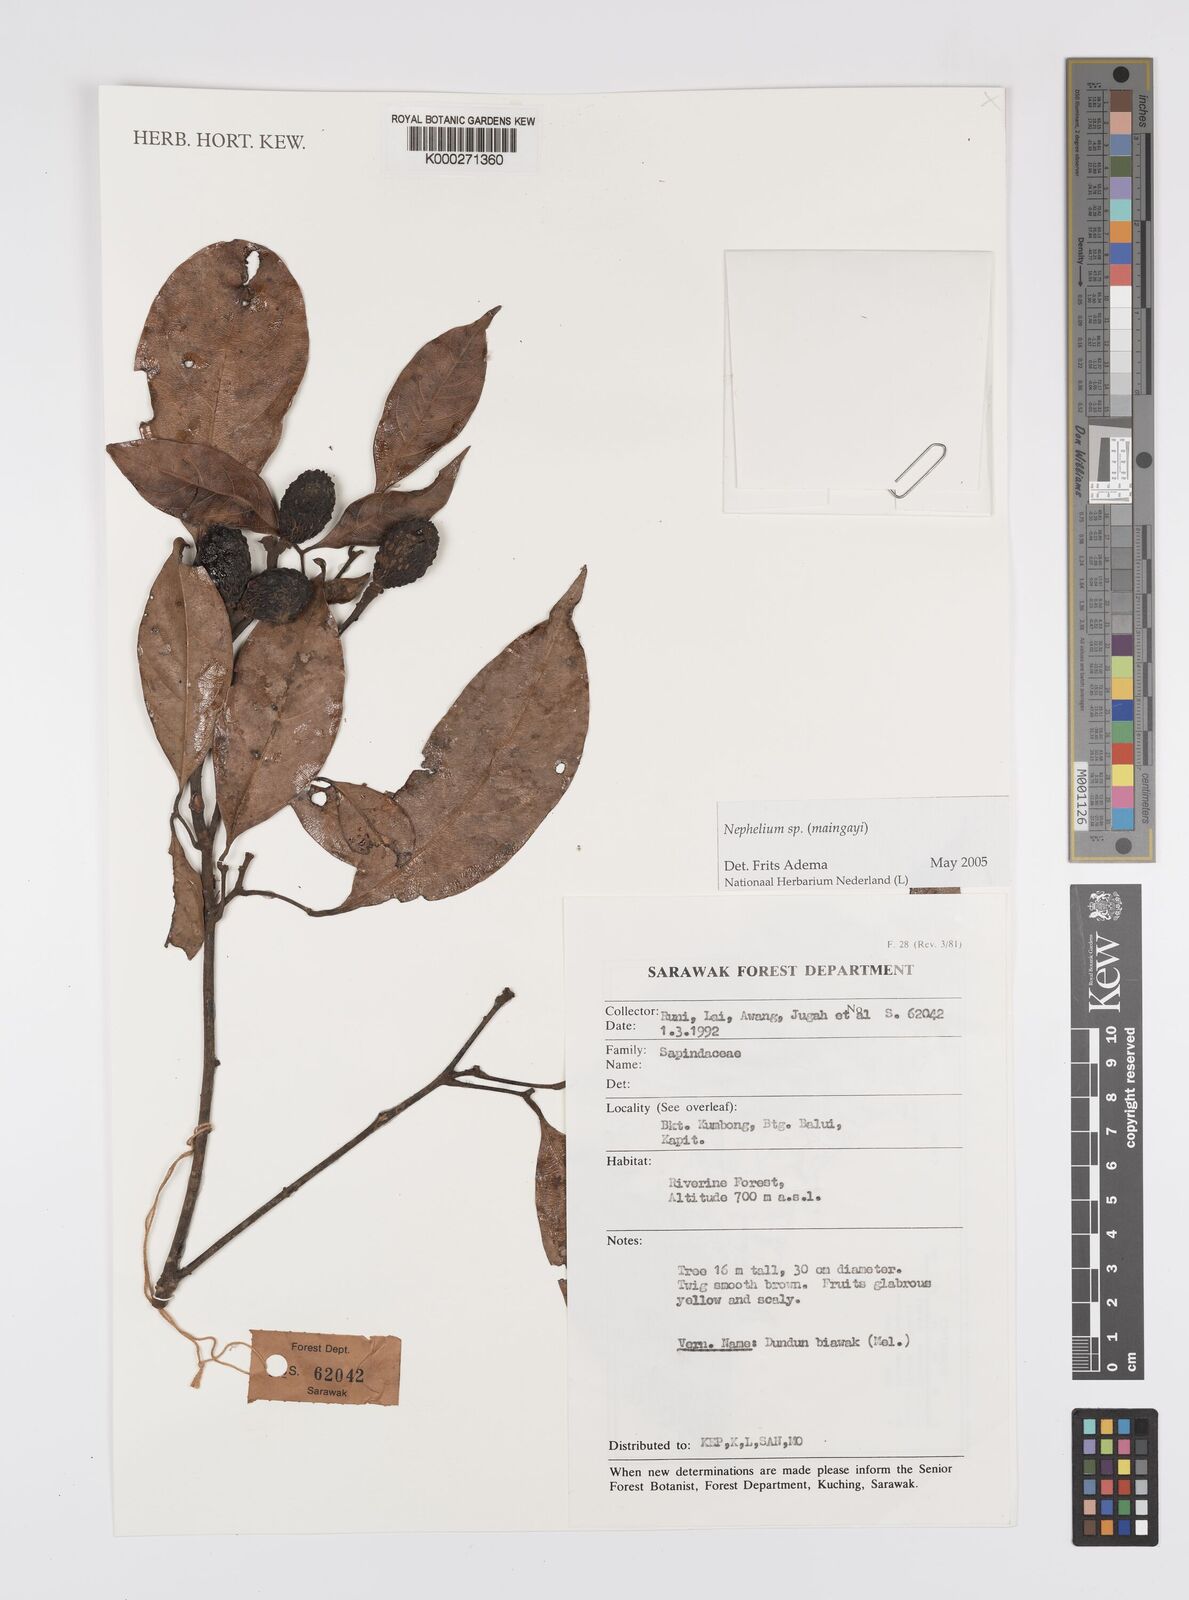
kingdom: Plantae
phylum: Tracheophyta
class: Magnoliopsida
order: Sapindales
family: Sapindaceae
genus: Nephelium
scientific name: Nephelium
